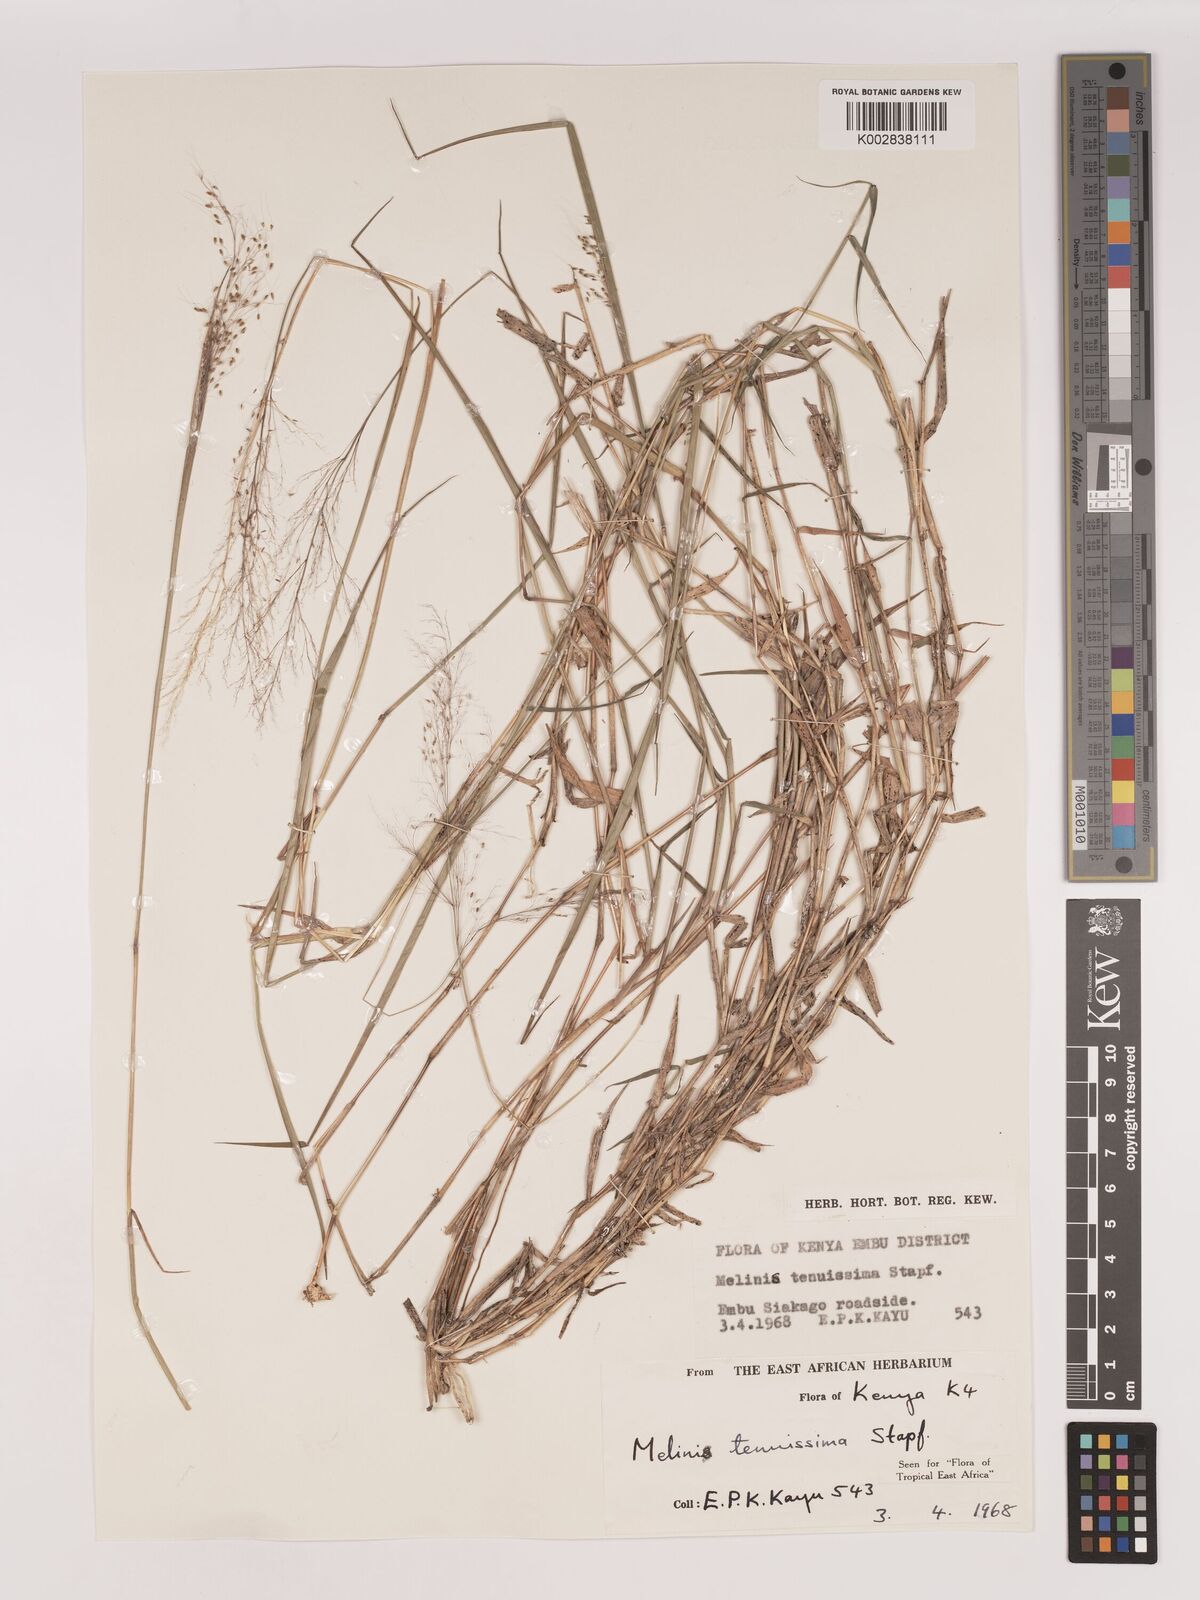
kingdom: Plantae
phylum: Tracheophyta
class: Liliopsida
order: Poales
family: Poaceae
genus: Melinis
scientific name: Melinis tenuissima
